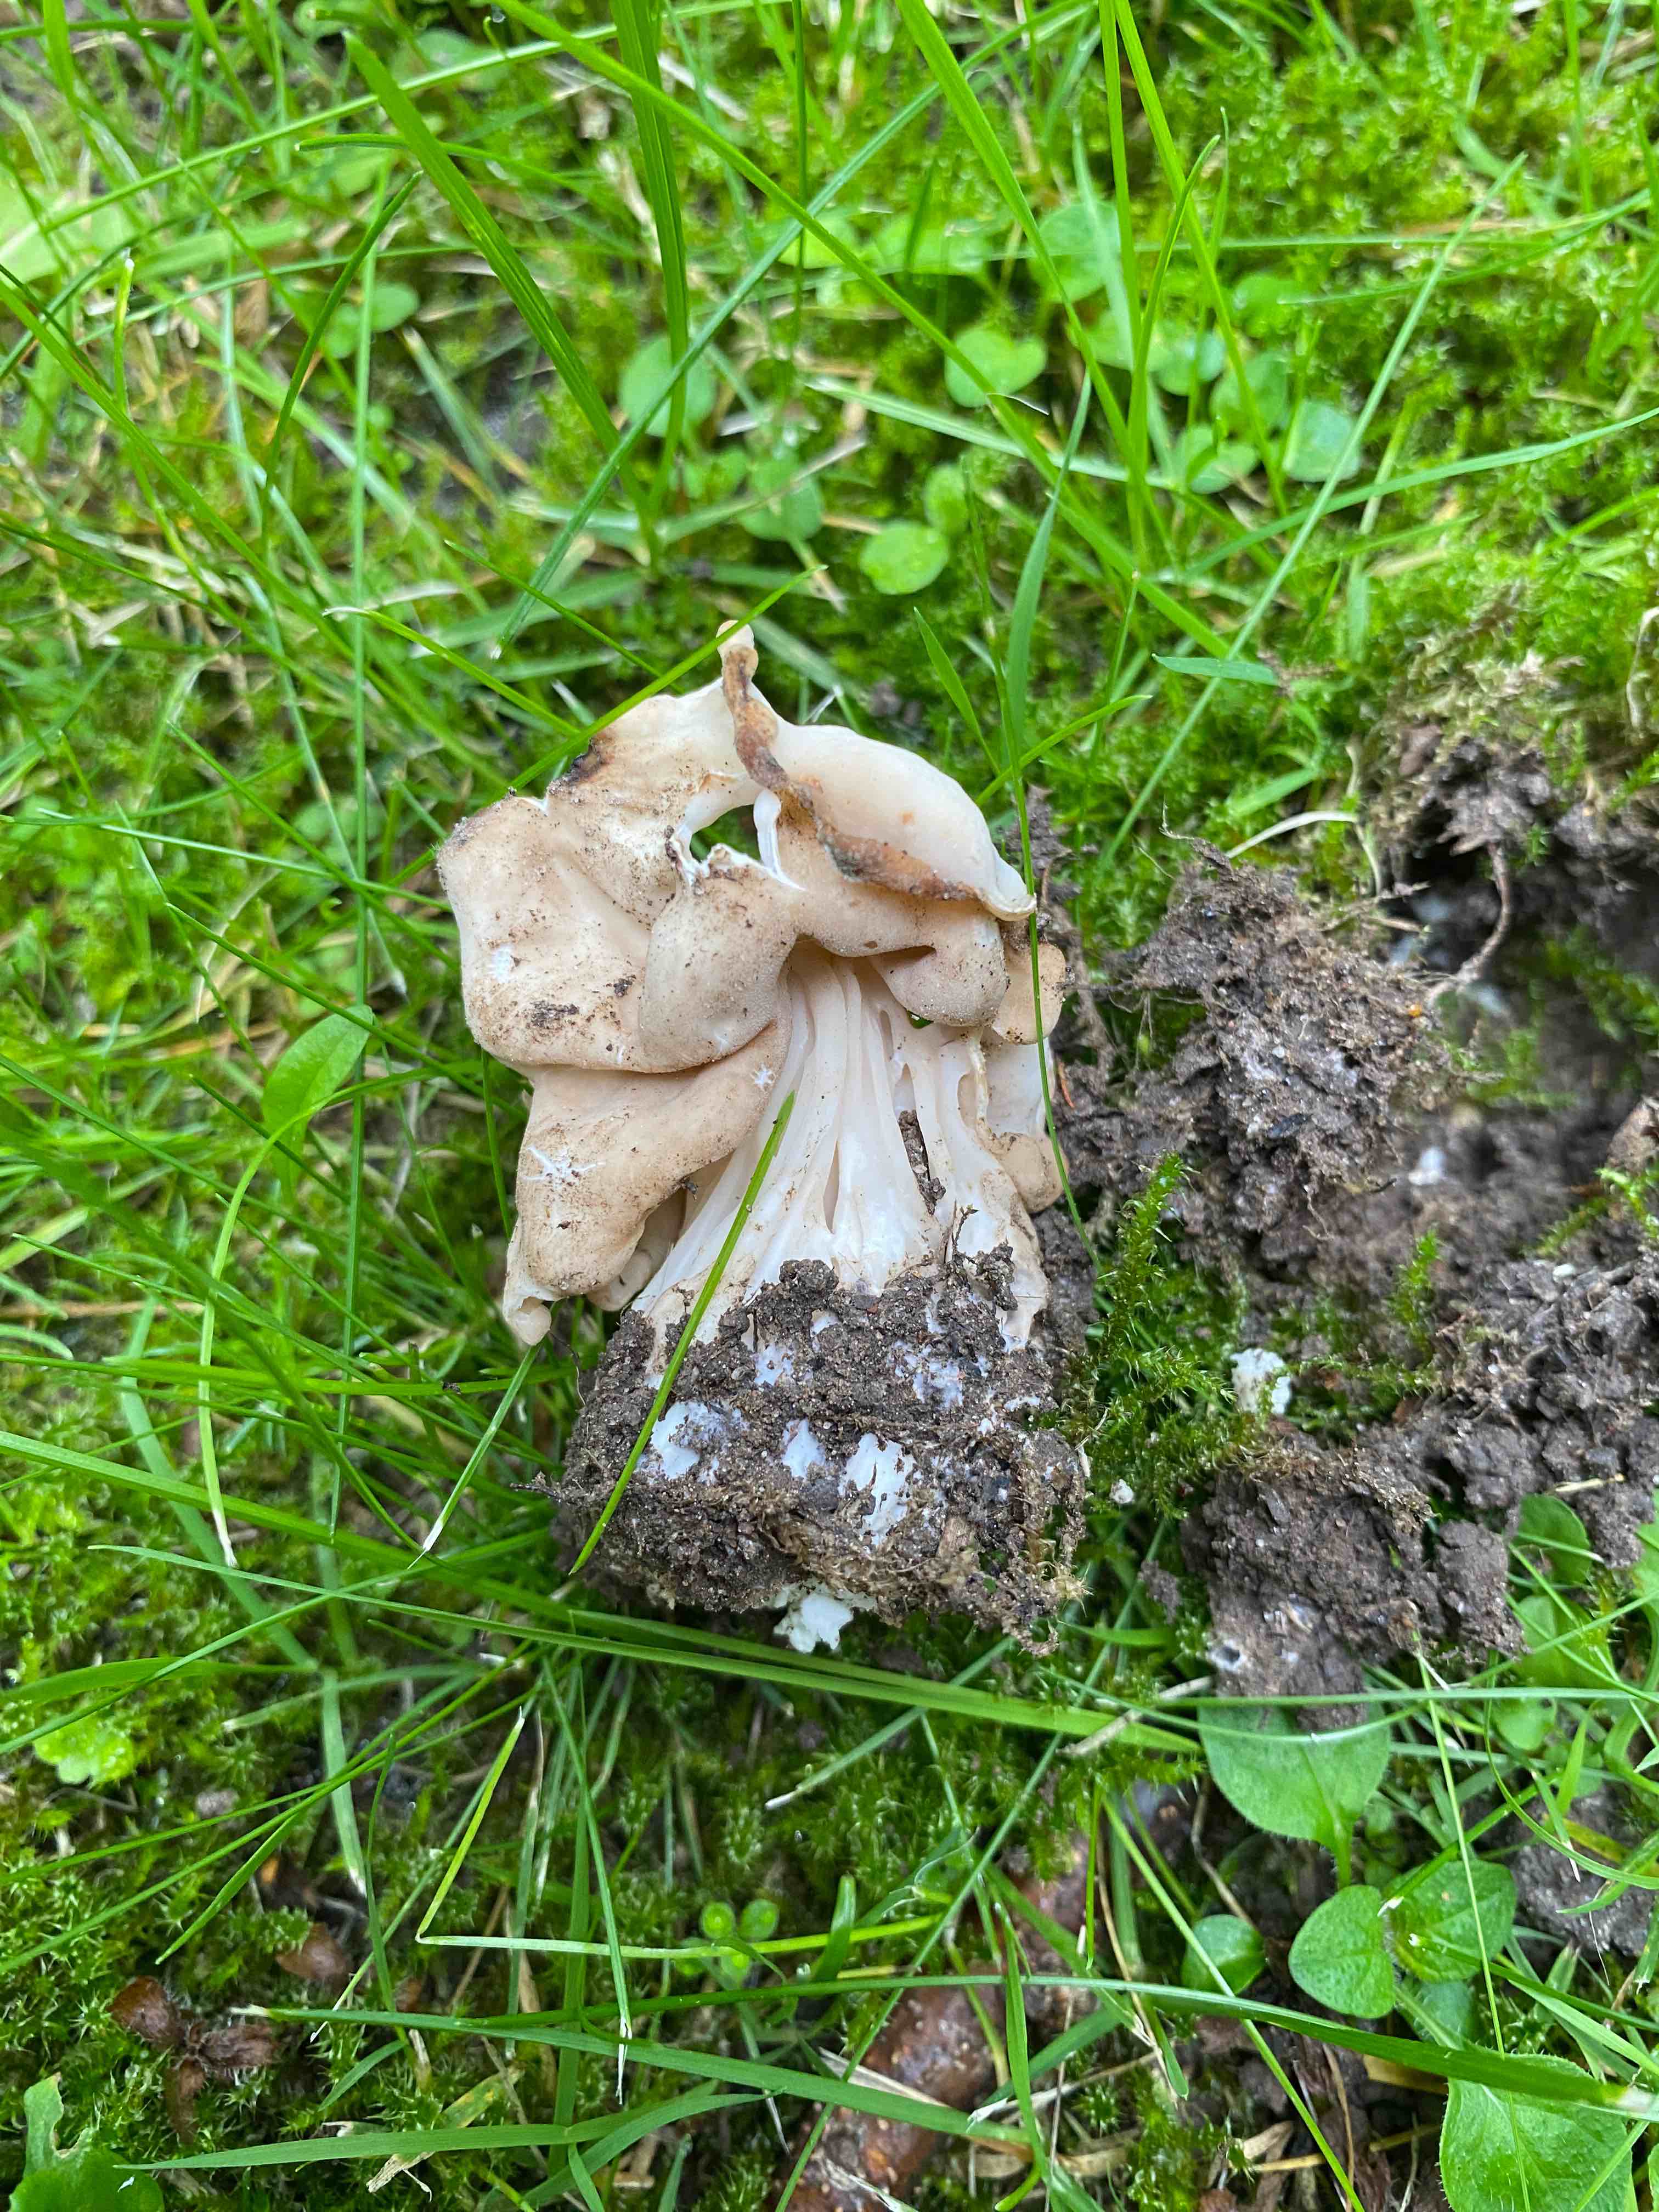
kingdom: Fungi
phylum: Ascomycota
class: Pezizomycetes
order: Pezizales
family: Helvellaceae
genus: Helvella
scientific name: Helvella crispa
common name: kruset foldhat
